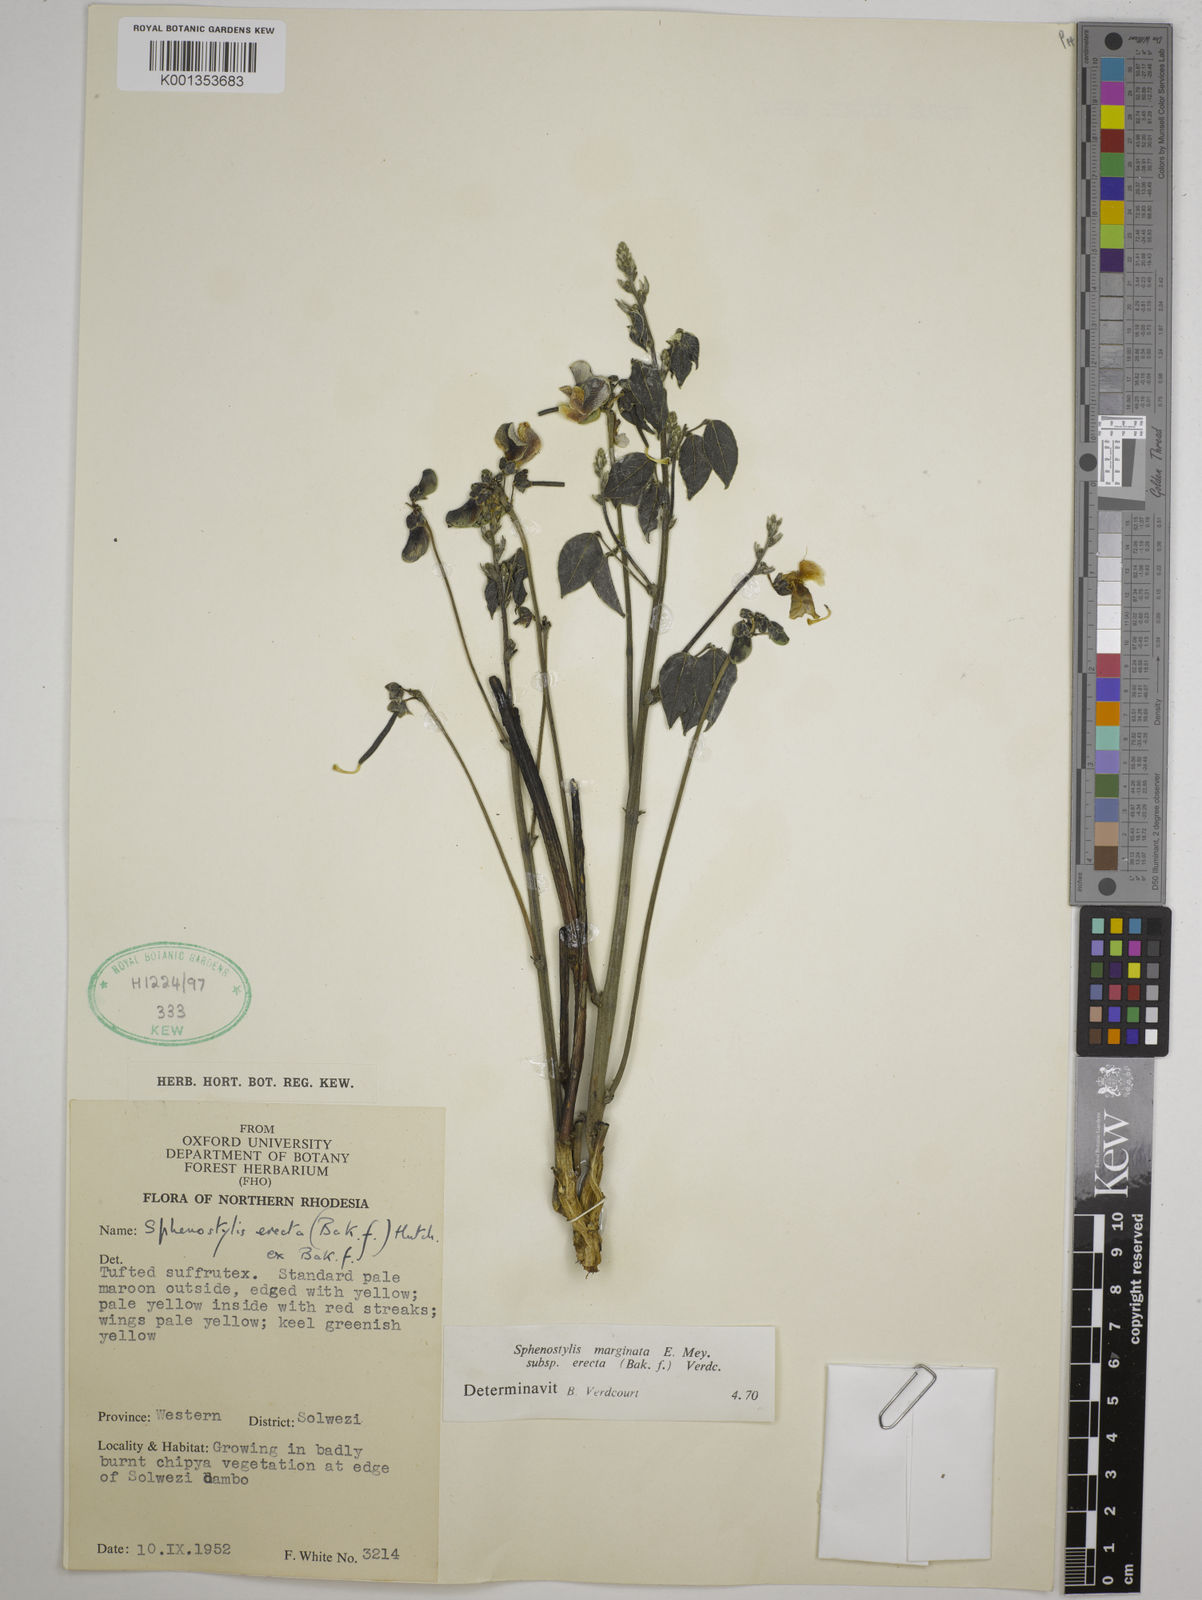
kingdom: Plantae
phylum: Tracheophyta
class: Magnoliopsida
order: Fabales
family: Fabaceae
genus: Sphenostylis
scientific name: Sphenostylis erecta
